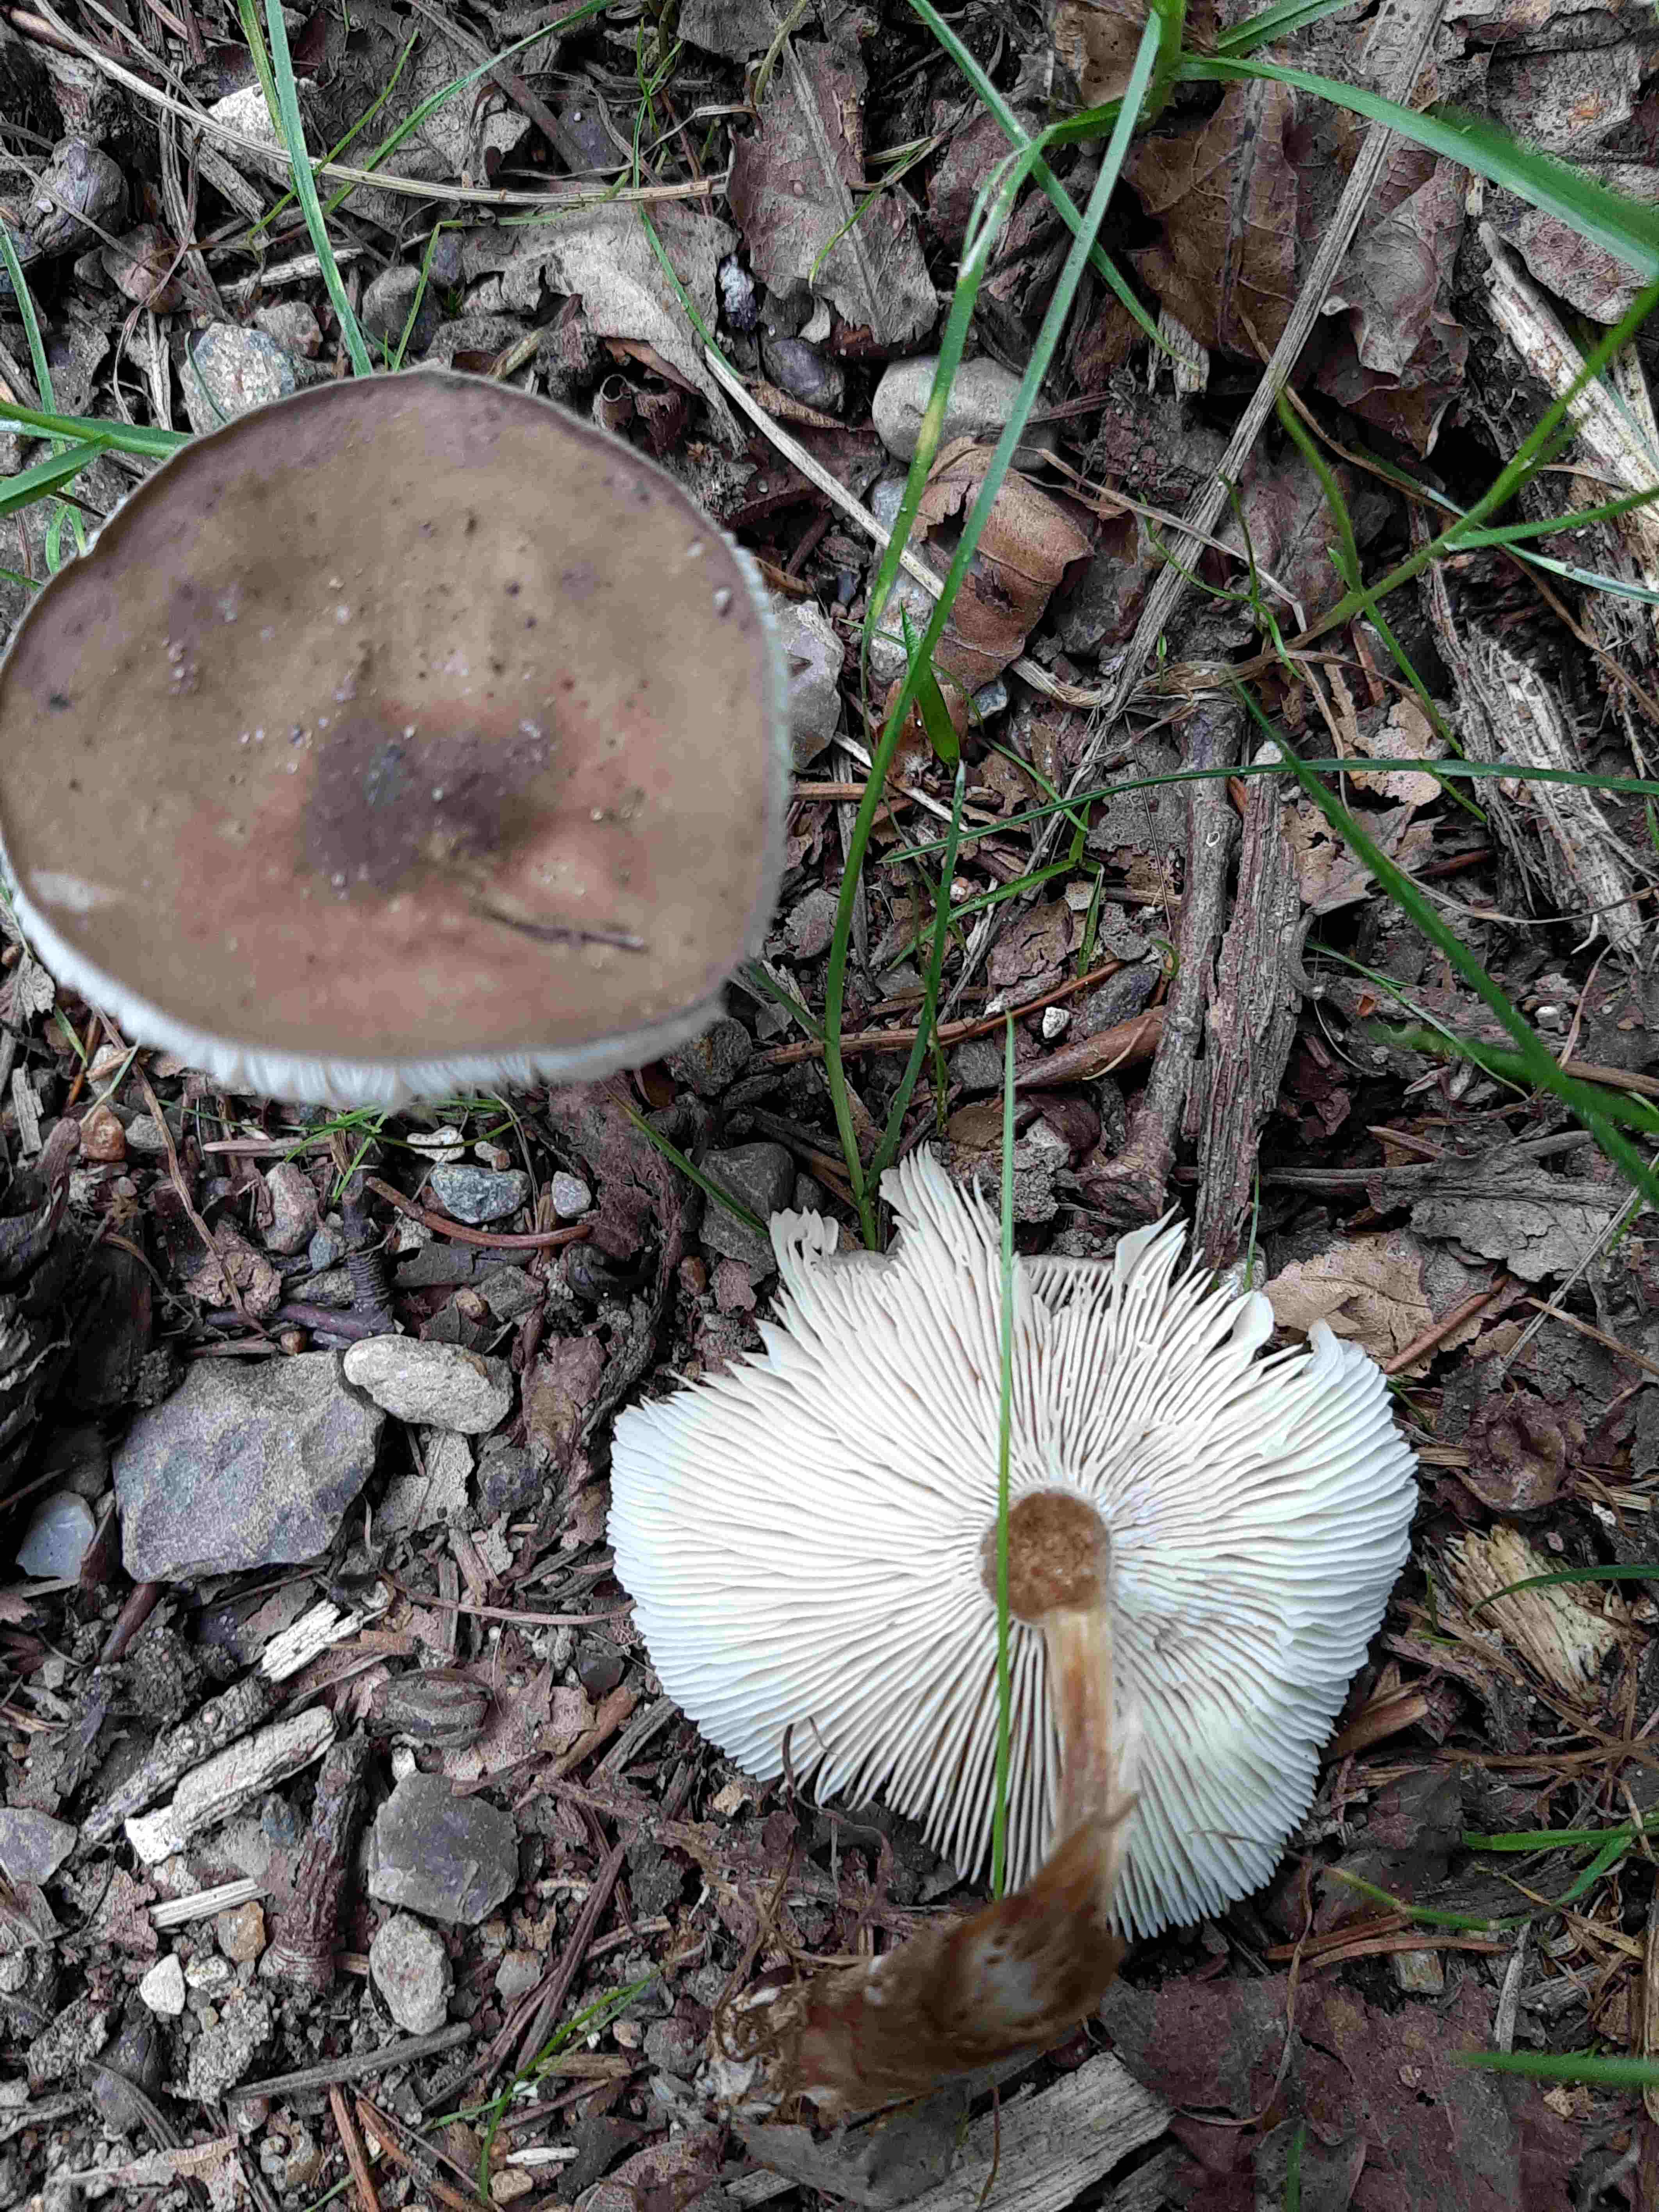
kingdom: Fungi
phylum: Basidiomycota
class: Agaricomycetes
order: Agaricales
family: Tricholomataceae
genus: Melanoleuca
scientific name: Melanoleuca
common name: munkehat
